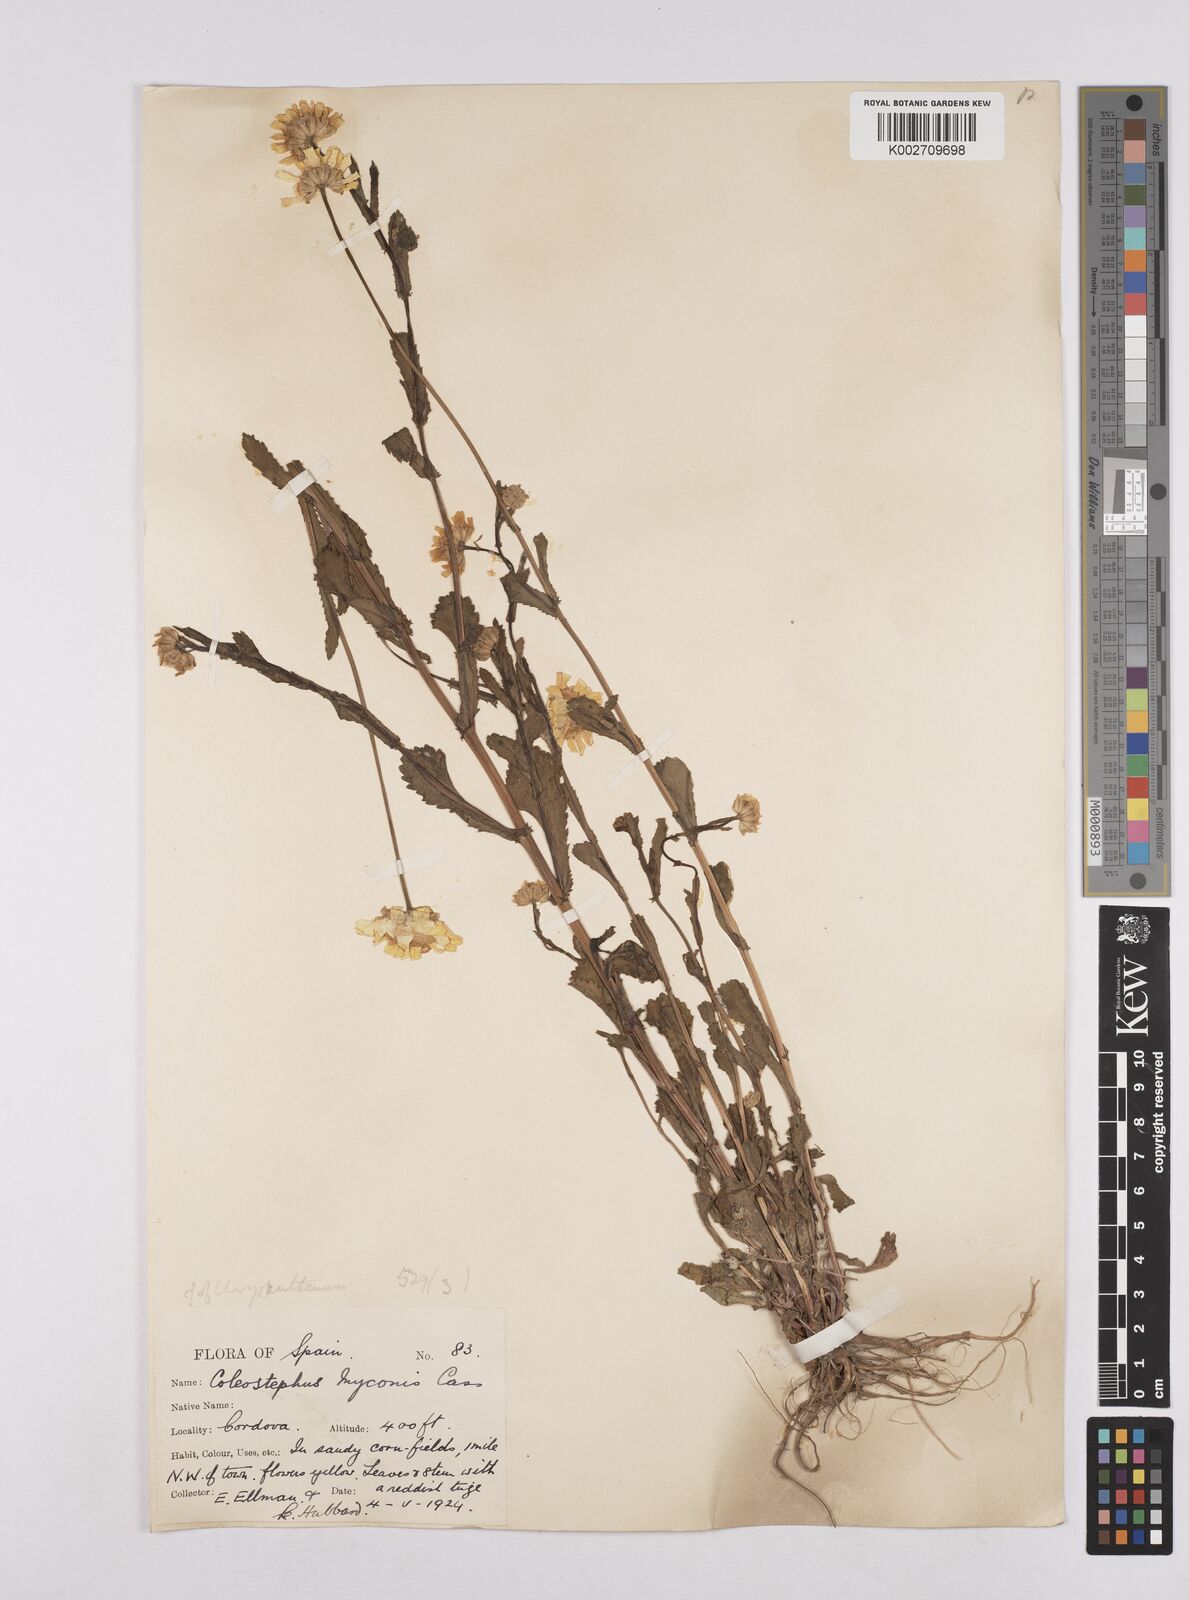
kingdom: Plantae
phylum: Tracheophyta
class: Magnoliopsida
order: Asterales
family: Asteraceae
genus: Coleostephus
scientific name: Coleostephus myconis
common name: Mediterranean marigold
